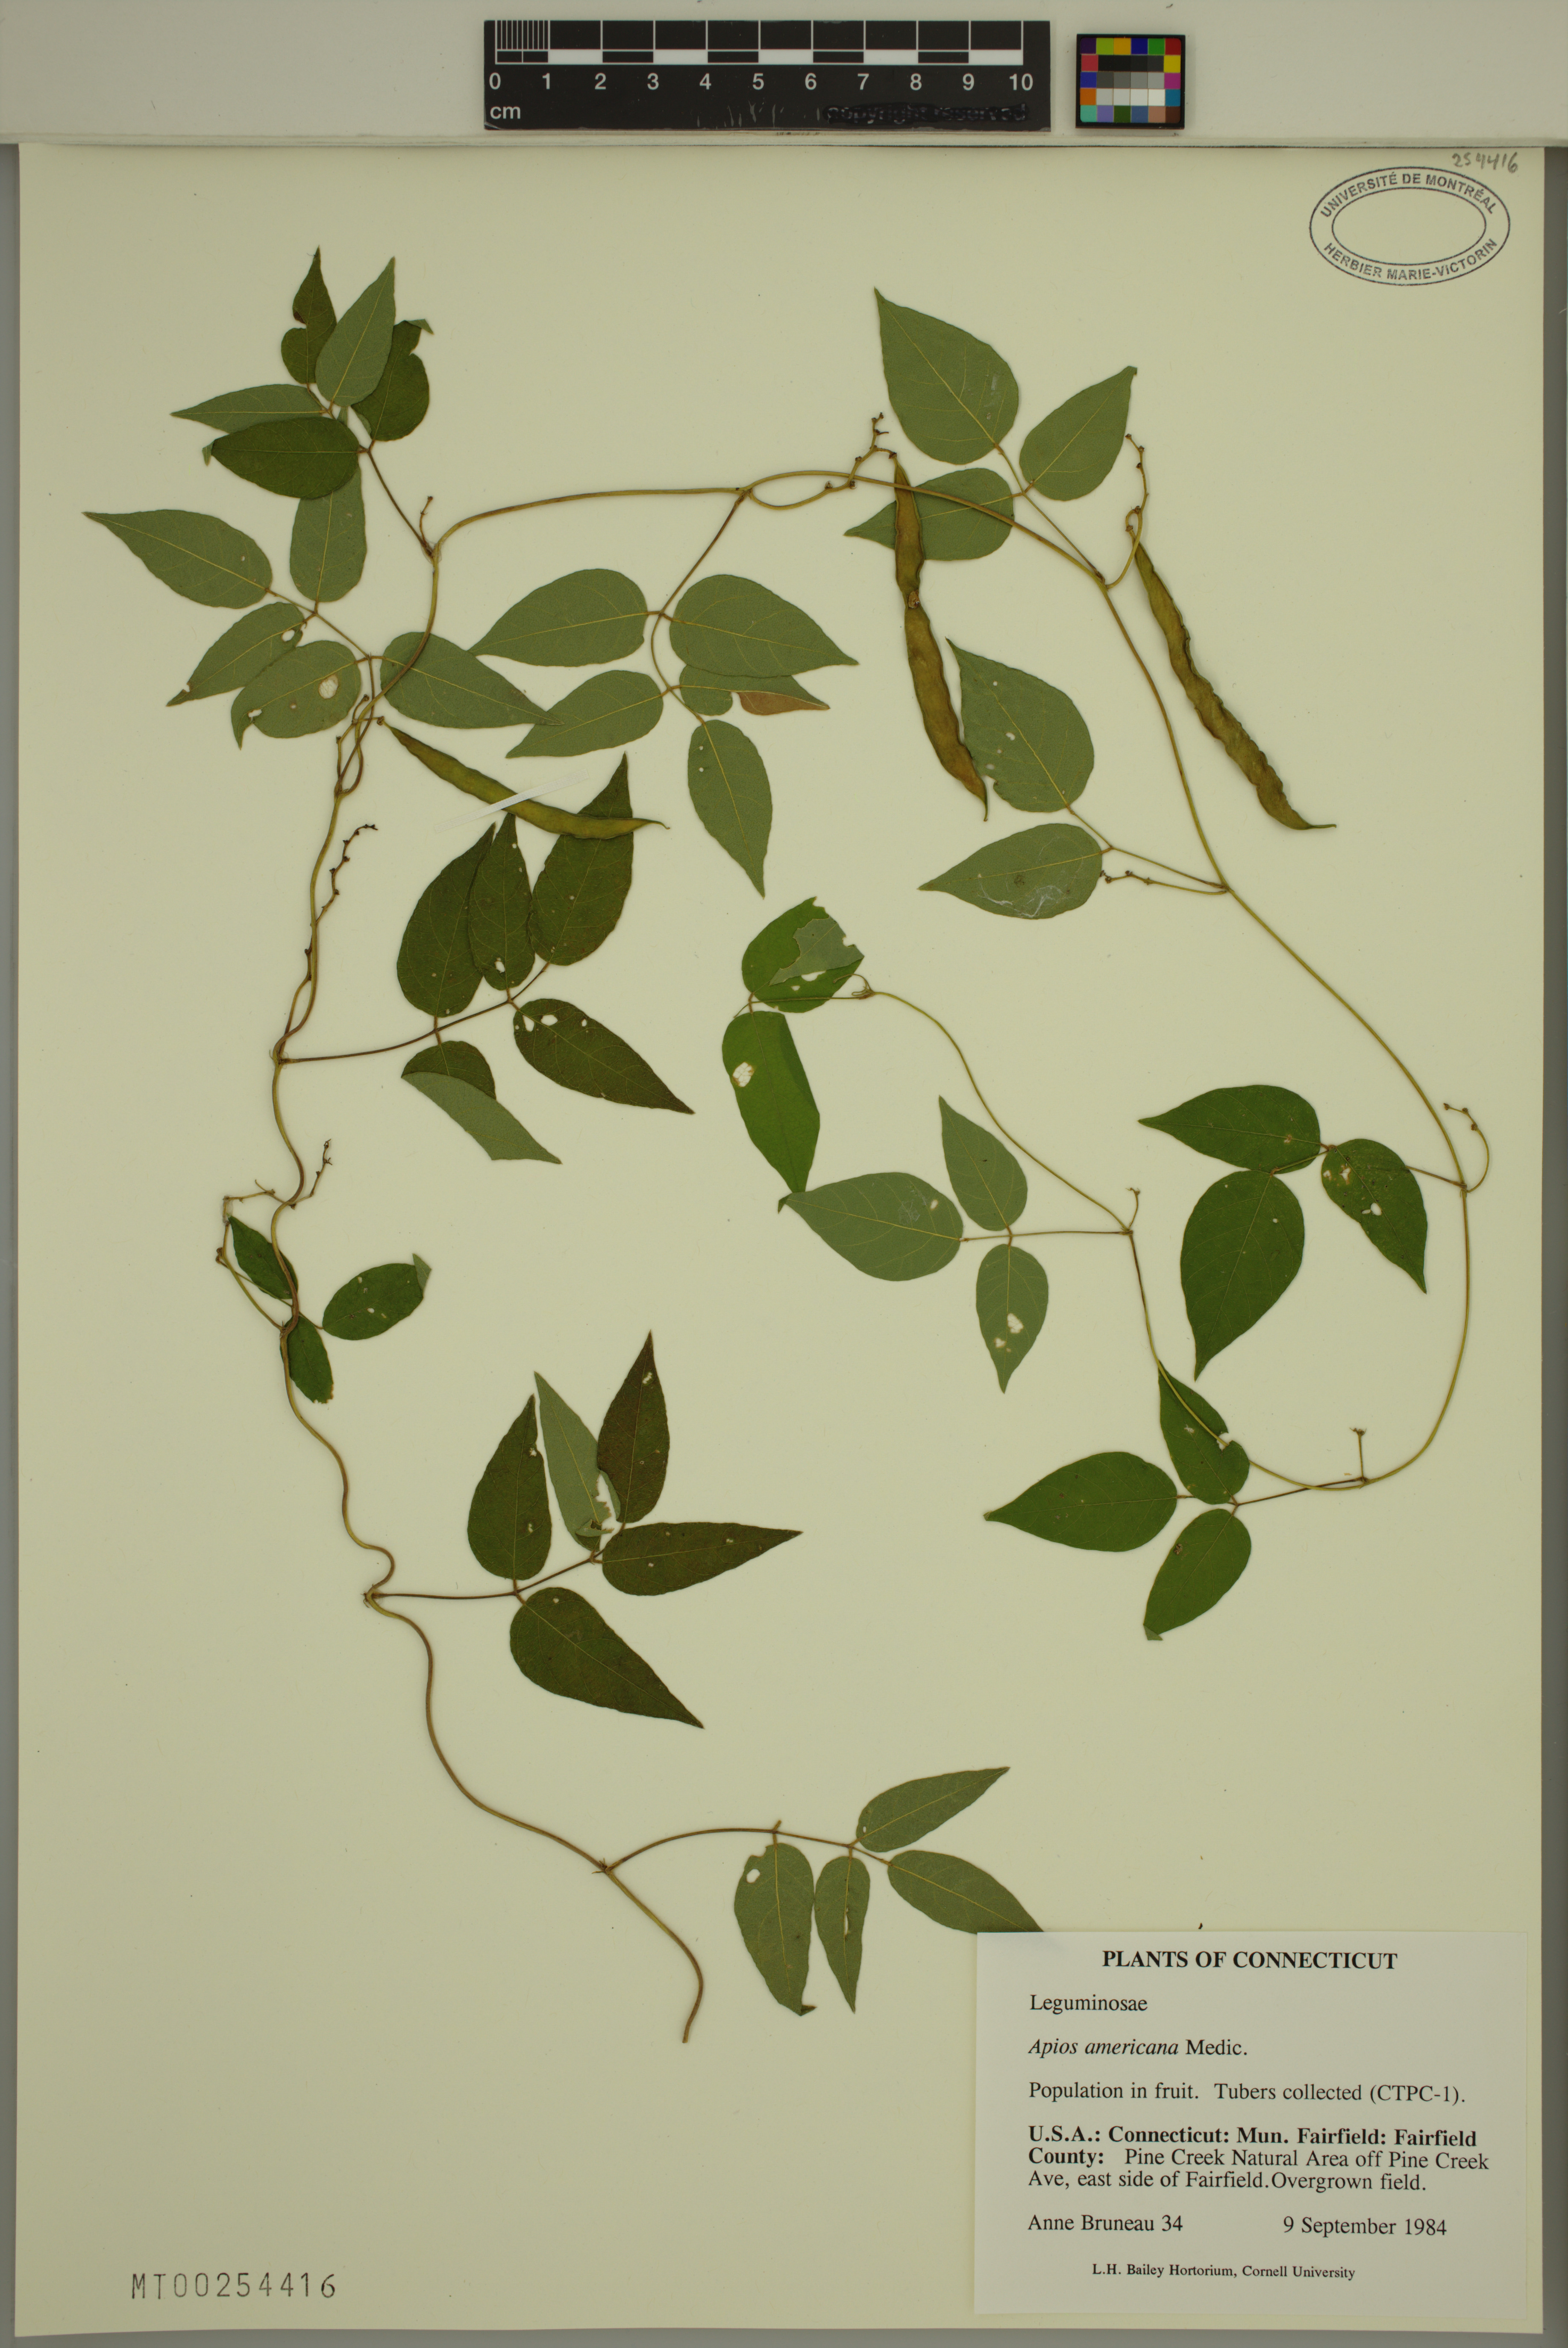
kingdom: Plantae
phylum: Tracheophyta
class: Magnoliopsida
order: Fabales
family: Fabaceae
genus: Apios
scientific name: Apios americana
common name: American potato-bean
